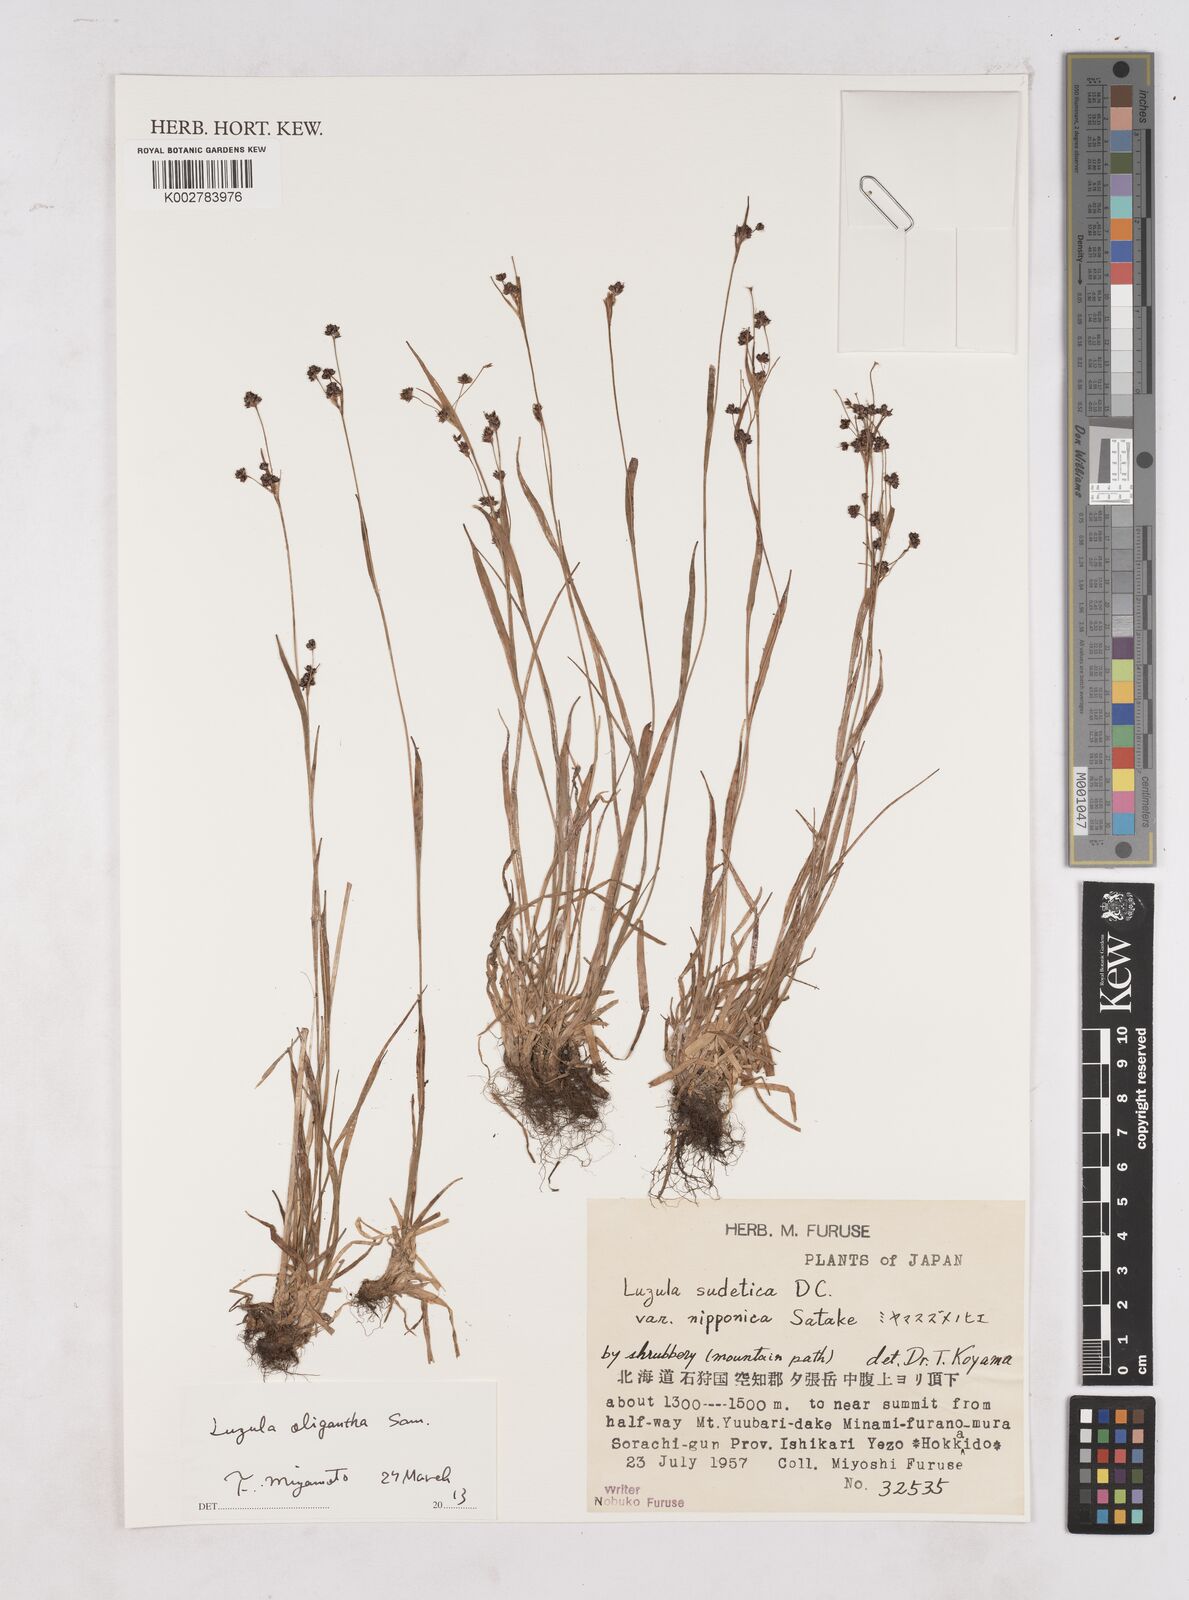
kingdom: Plantae
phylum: Tracheophyta
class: Liliopsida
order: Poales
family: Juncaceae
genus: Luzula
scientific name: Luzula campestris
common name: Field wood-rush
